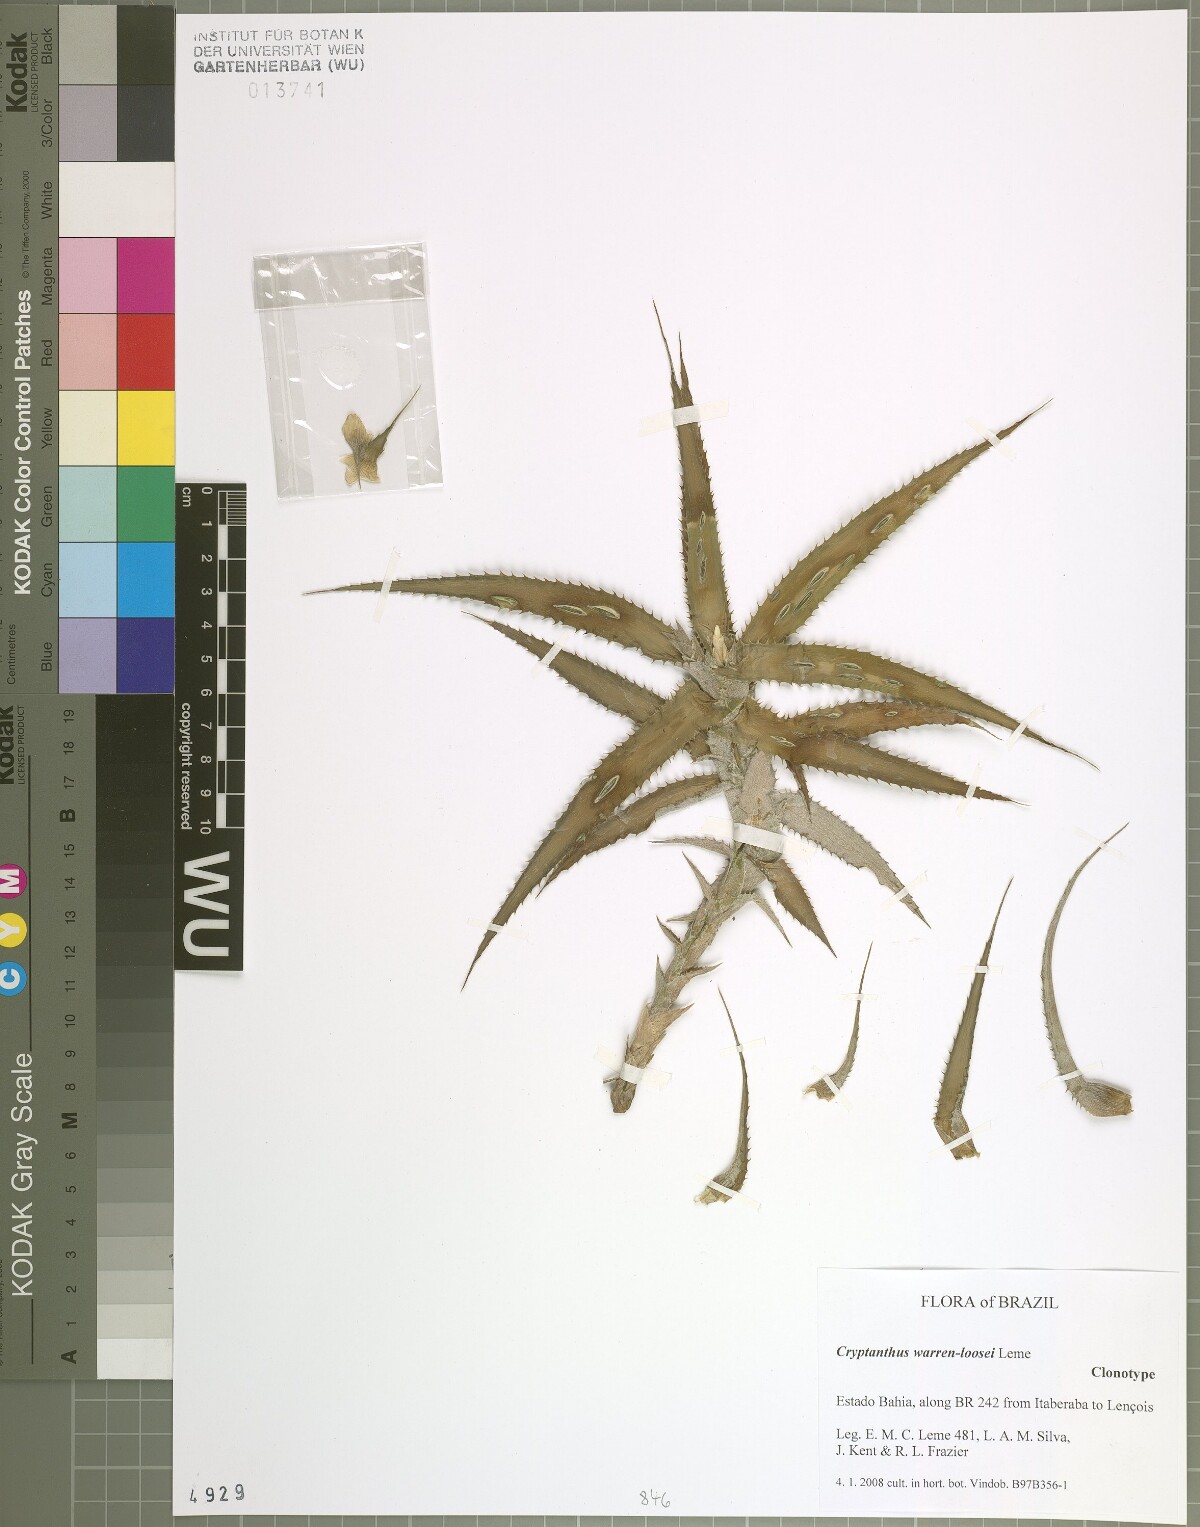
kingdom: Plantae
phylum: Tracheophyta
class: Liliopsida
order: Poales
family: Bromeliaceae
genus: Cryptanthus
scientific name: Cryptanthus warren-loosei
